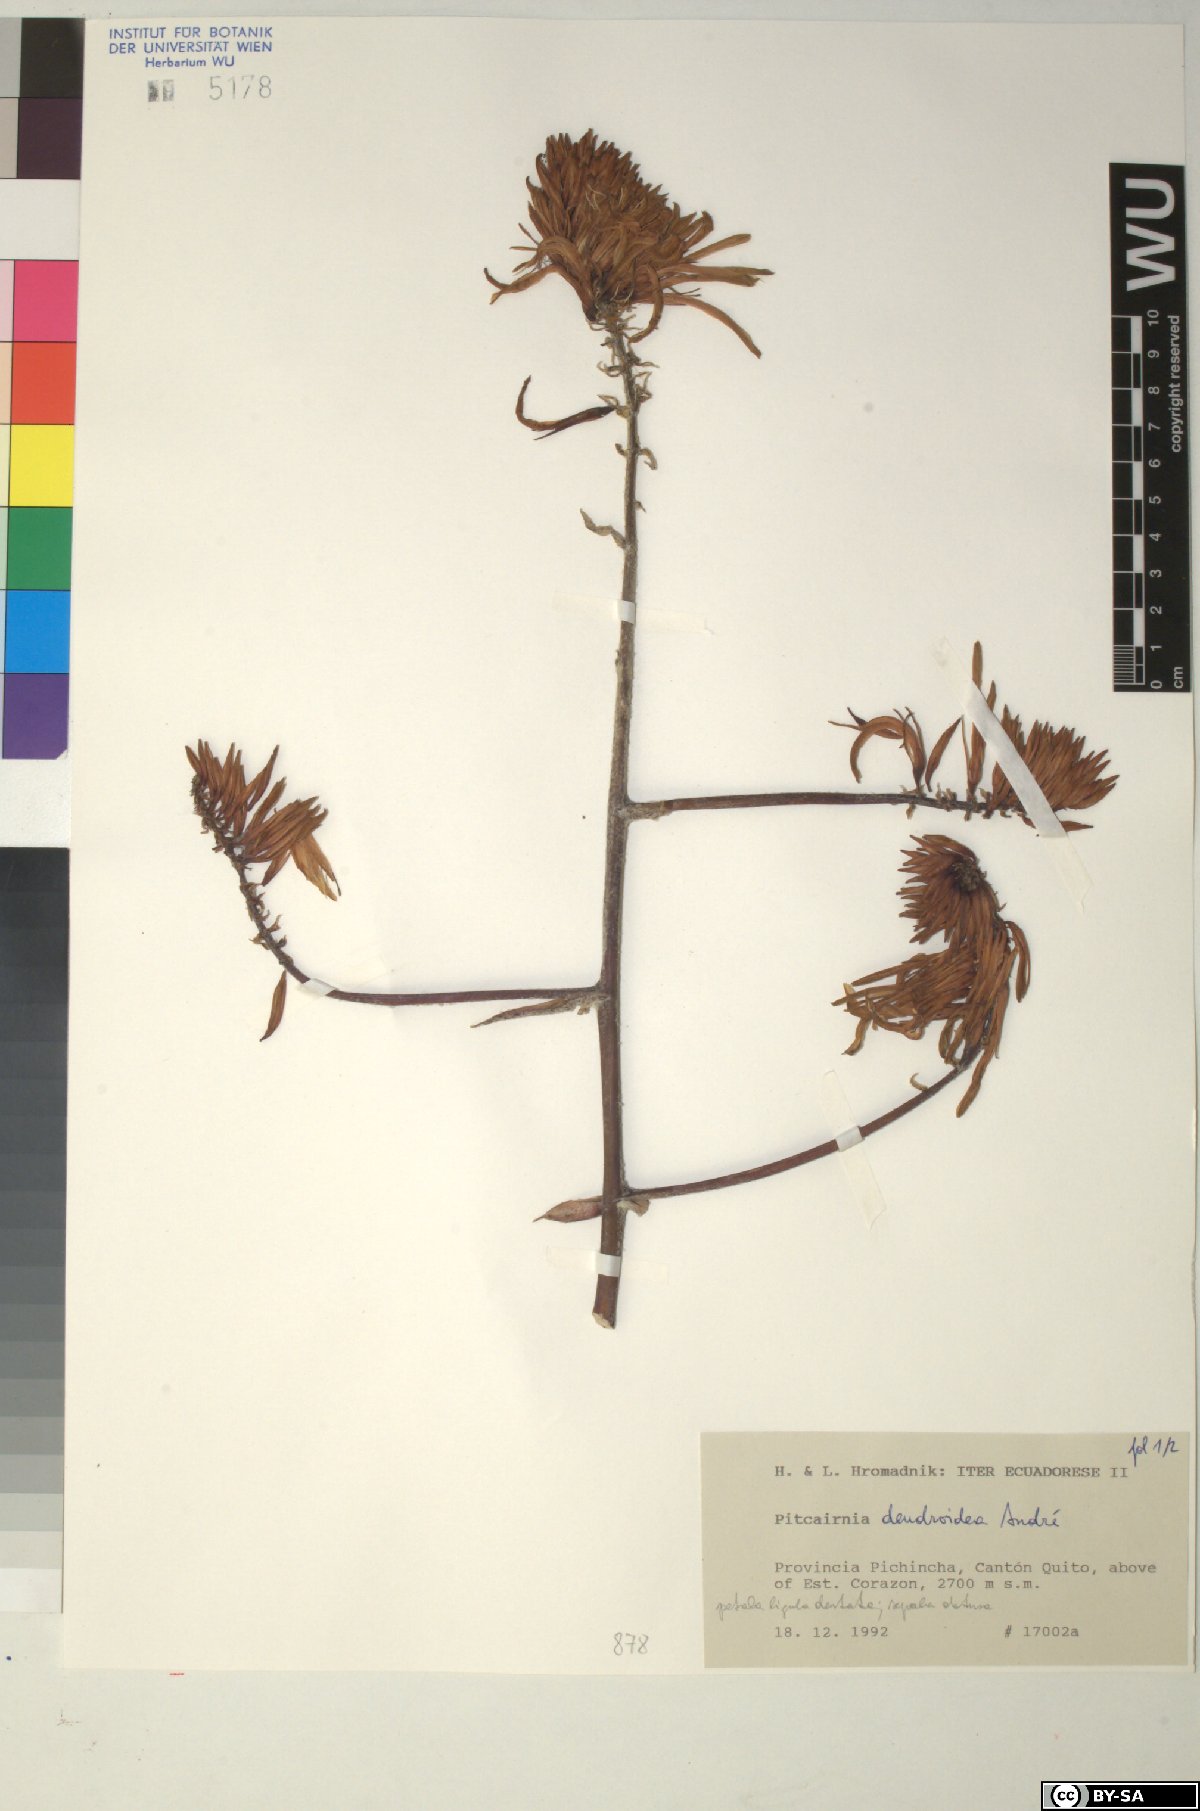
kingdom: Plantae
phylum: Tracheophyta
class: Liliopsida
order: Poales
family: Bromeliaceae
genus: Pitcairnia
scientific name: Pitcairnia dendroidea
